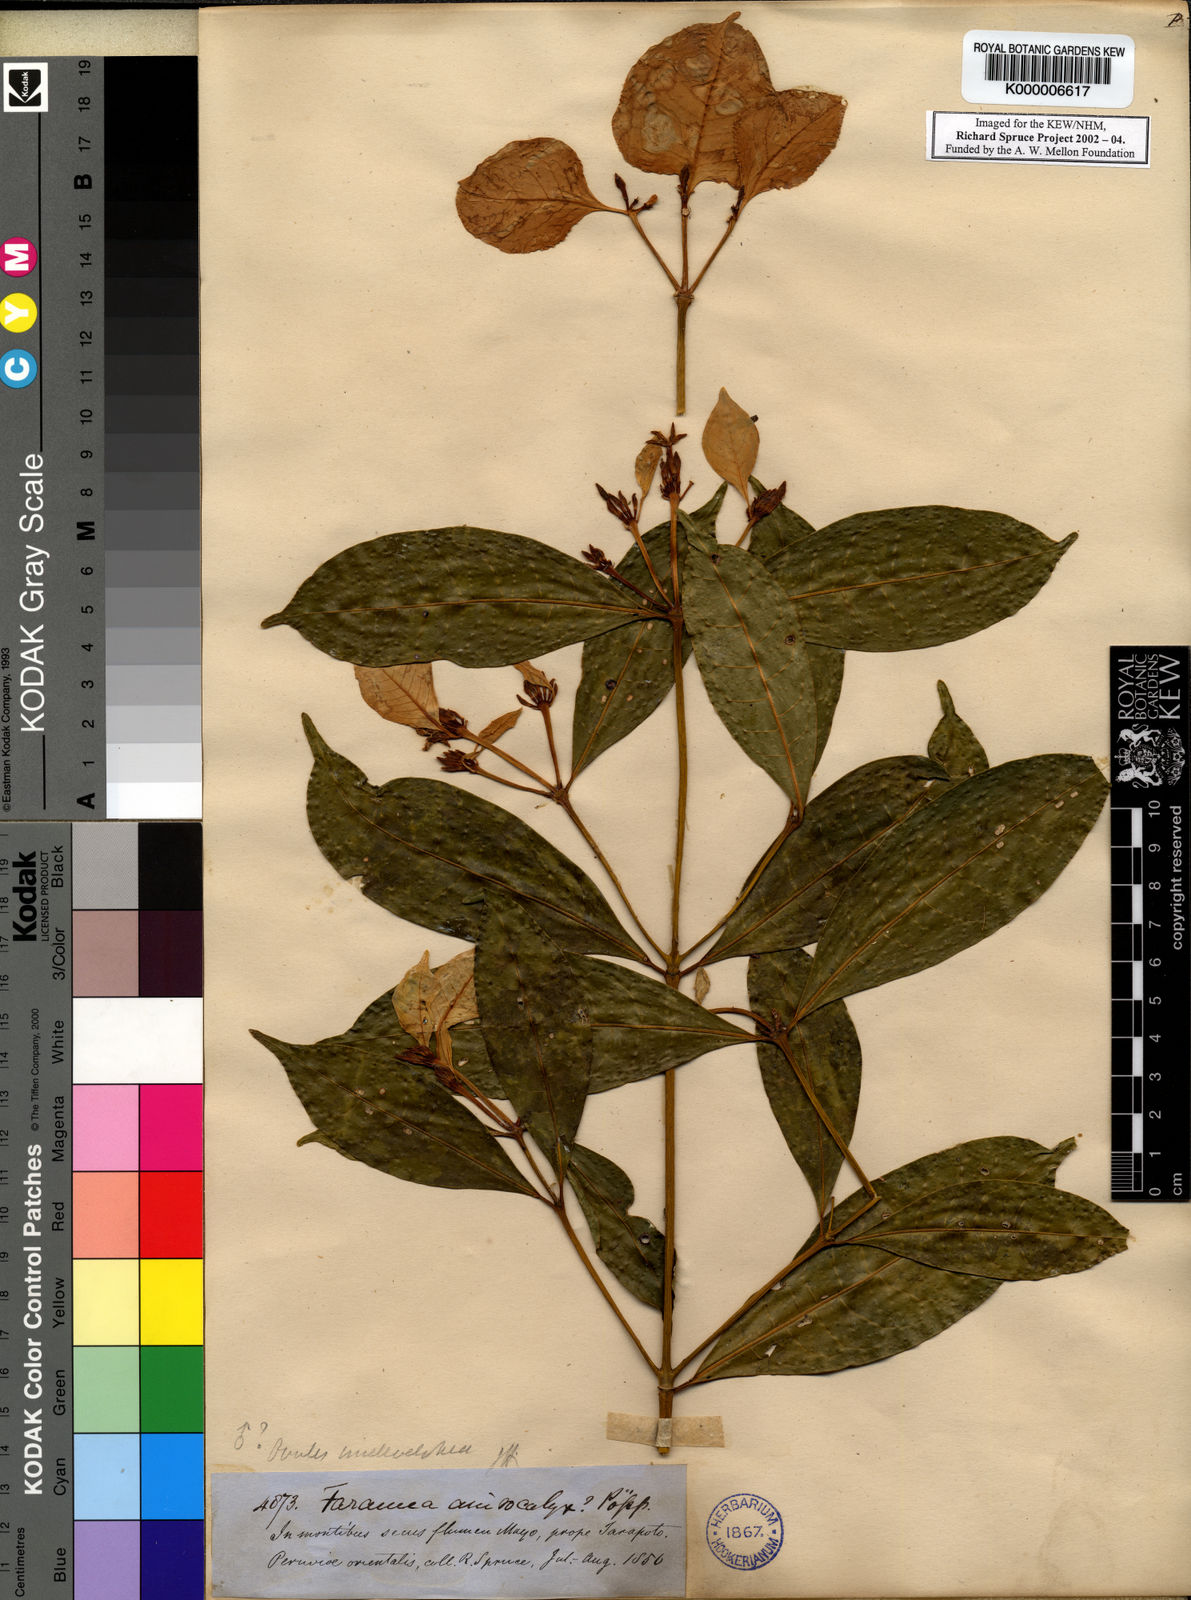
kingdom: Plantae
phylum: Tracheophyta
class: Magnoliopsida
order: Gentianales
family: Rubiaceae
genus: Faramea
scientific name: Faramea
